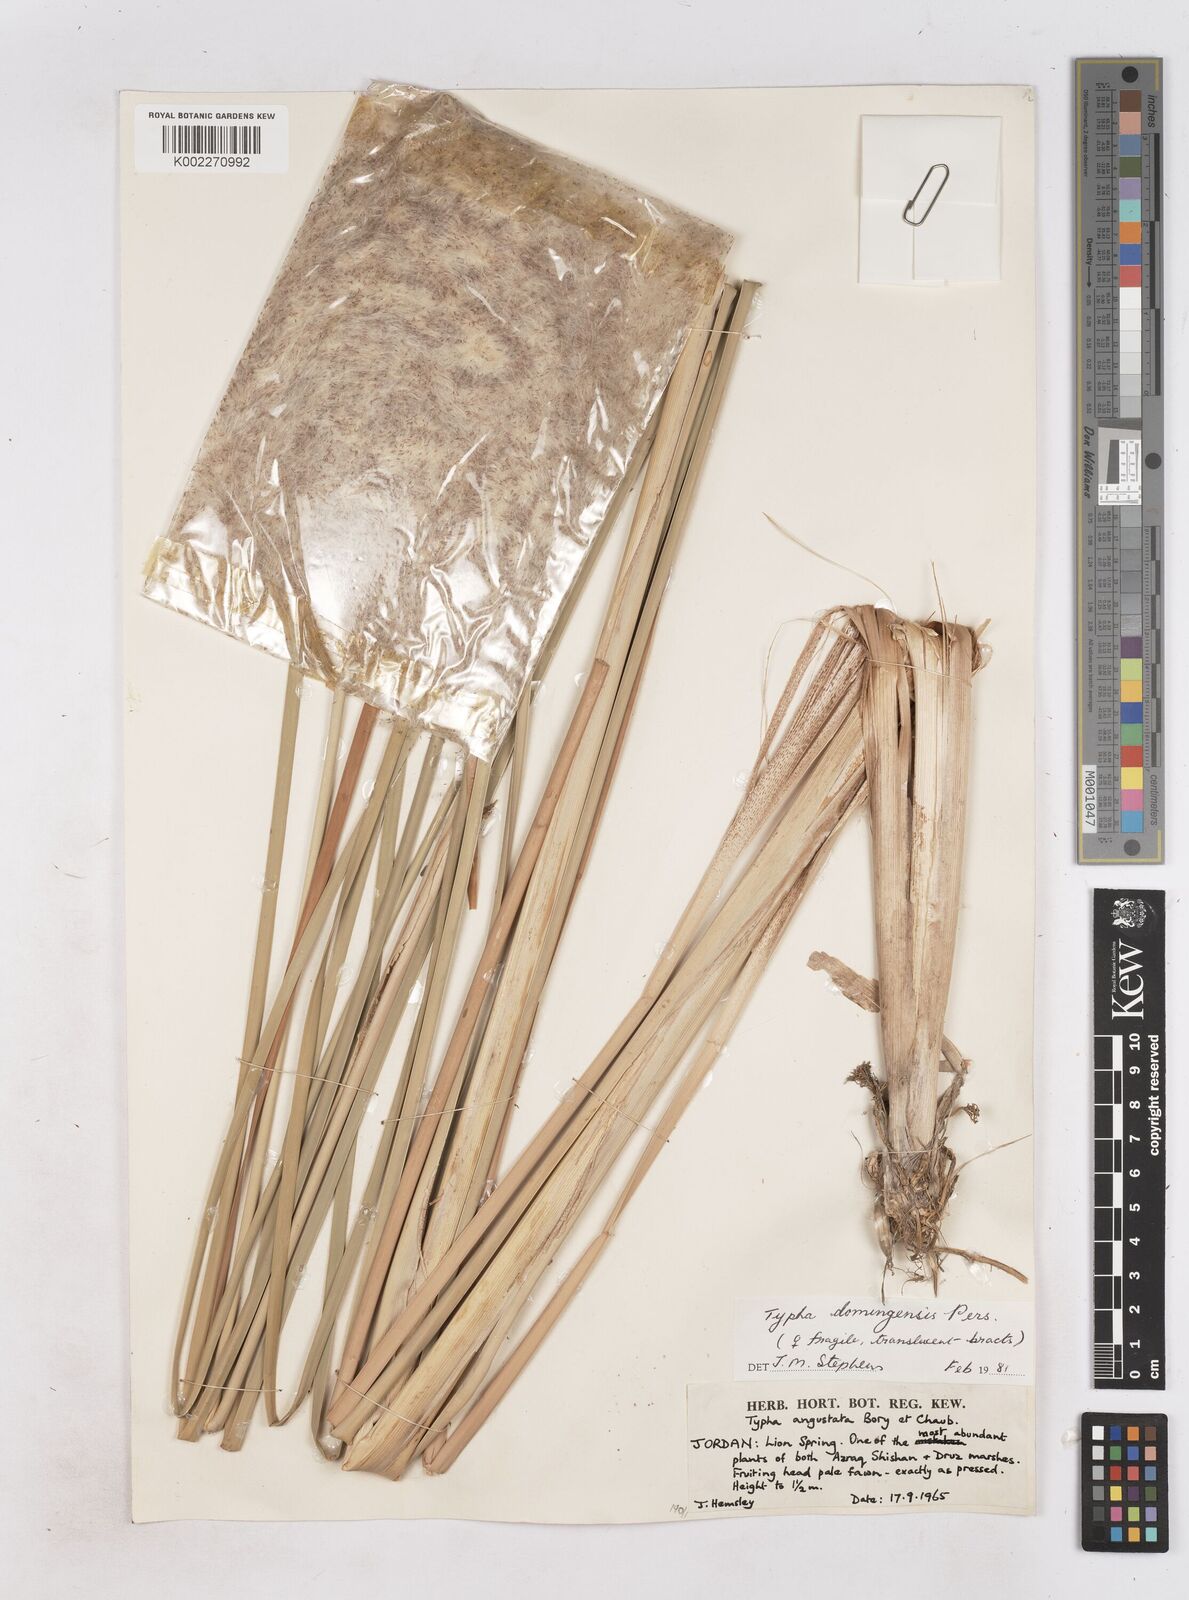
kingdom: Plantae
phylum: Tracheophyta
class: Liliopsida
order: Poales
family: Typhaceae
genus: Typha
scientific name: Typha domingensis
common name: Southern cattail
